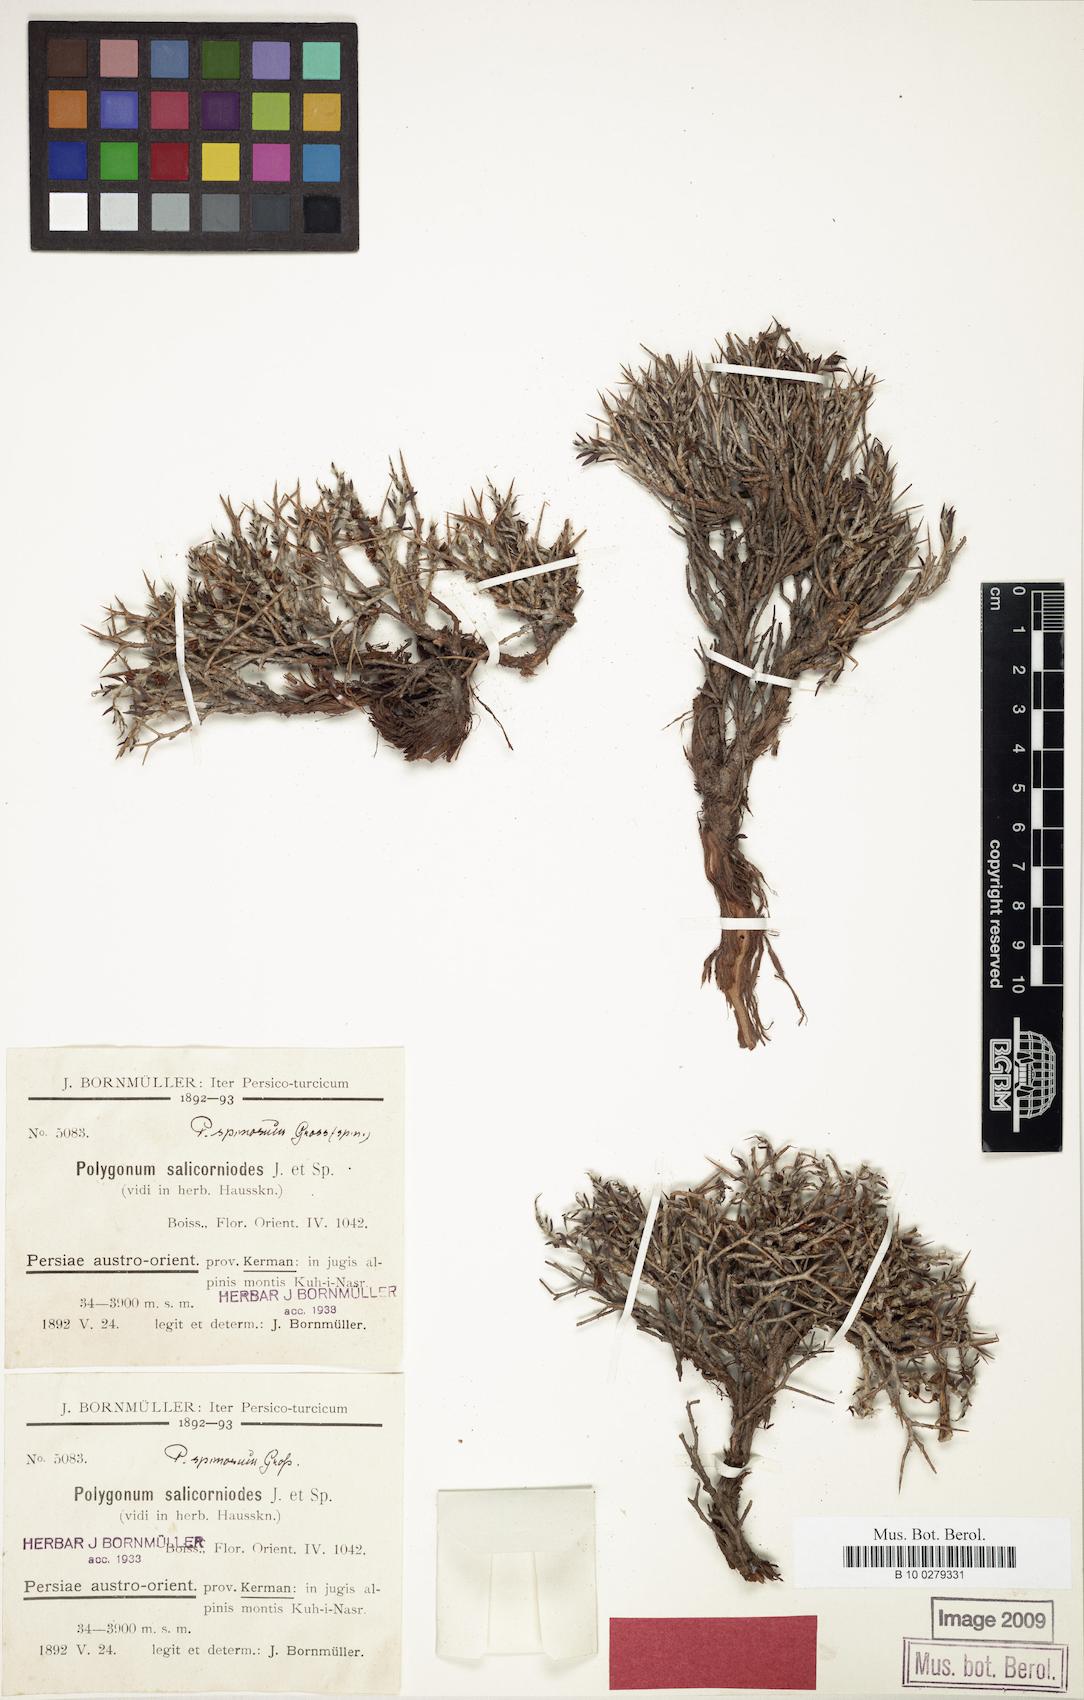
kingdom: Plantae
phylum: Tracheophyta
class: Magnoliopsida
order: Caryophyllales
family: Polygonaceae
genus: Atraphaxis
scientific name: Atraphaxis kermanica
